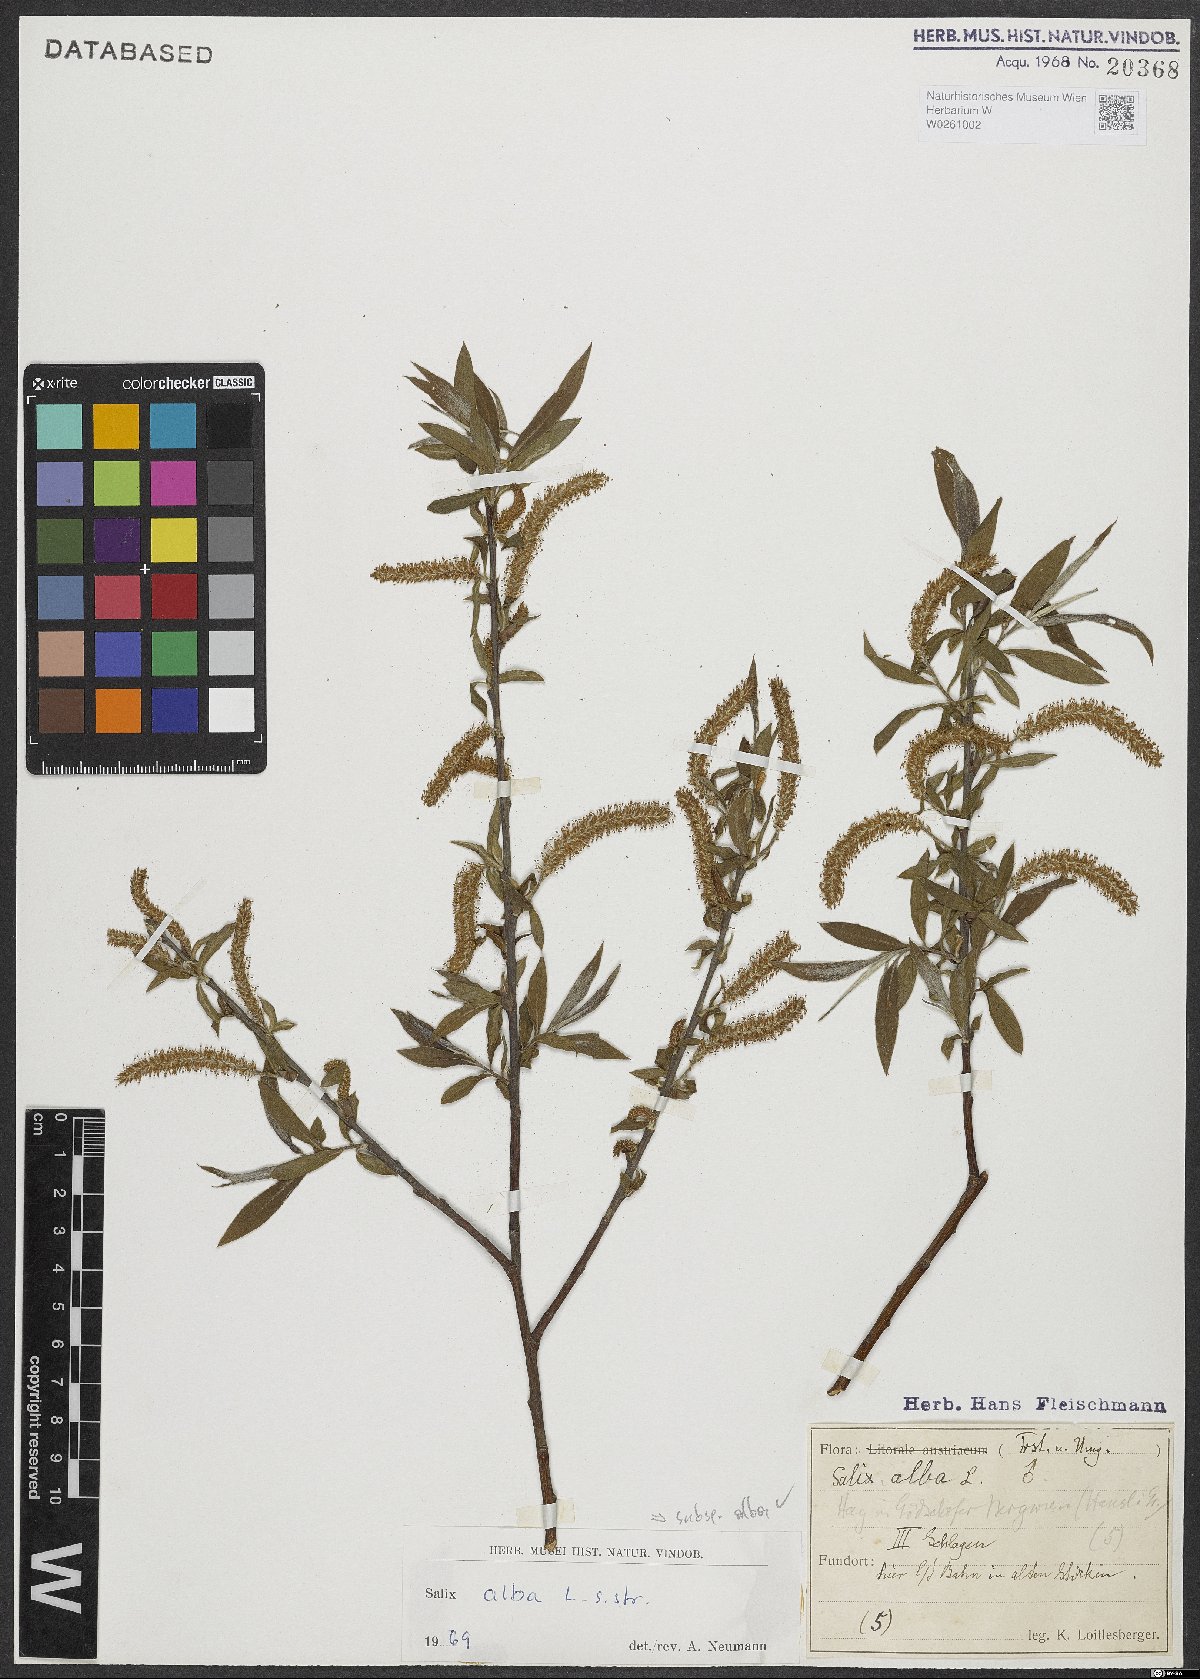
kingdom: Plantae
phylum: Tracheophyta
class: Magnoliopsida
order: Malpighiales
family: Salicaceae
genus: Salix
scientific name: Salix alba
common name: White willow
